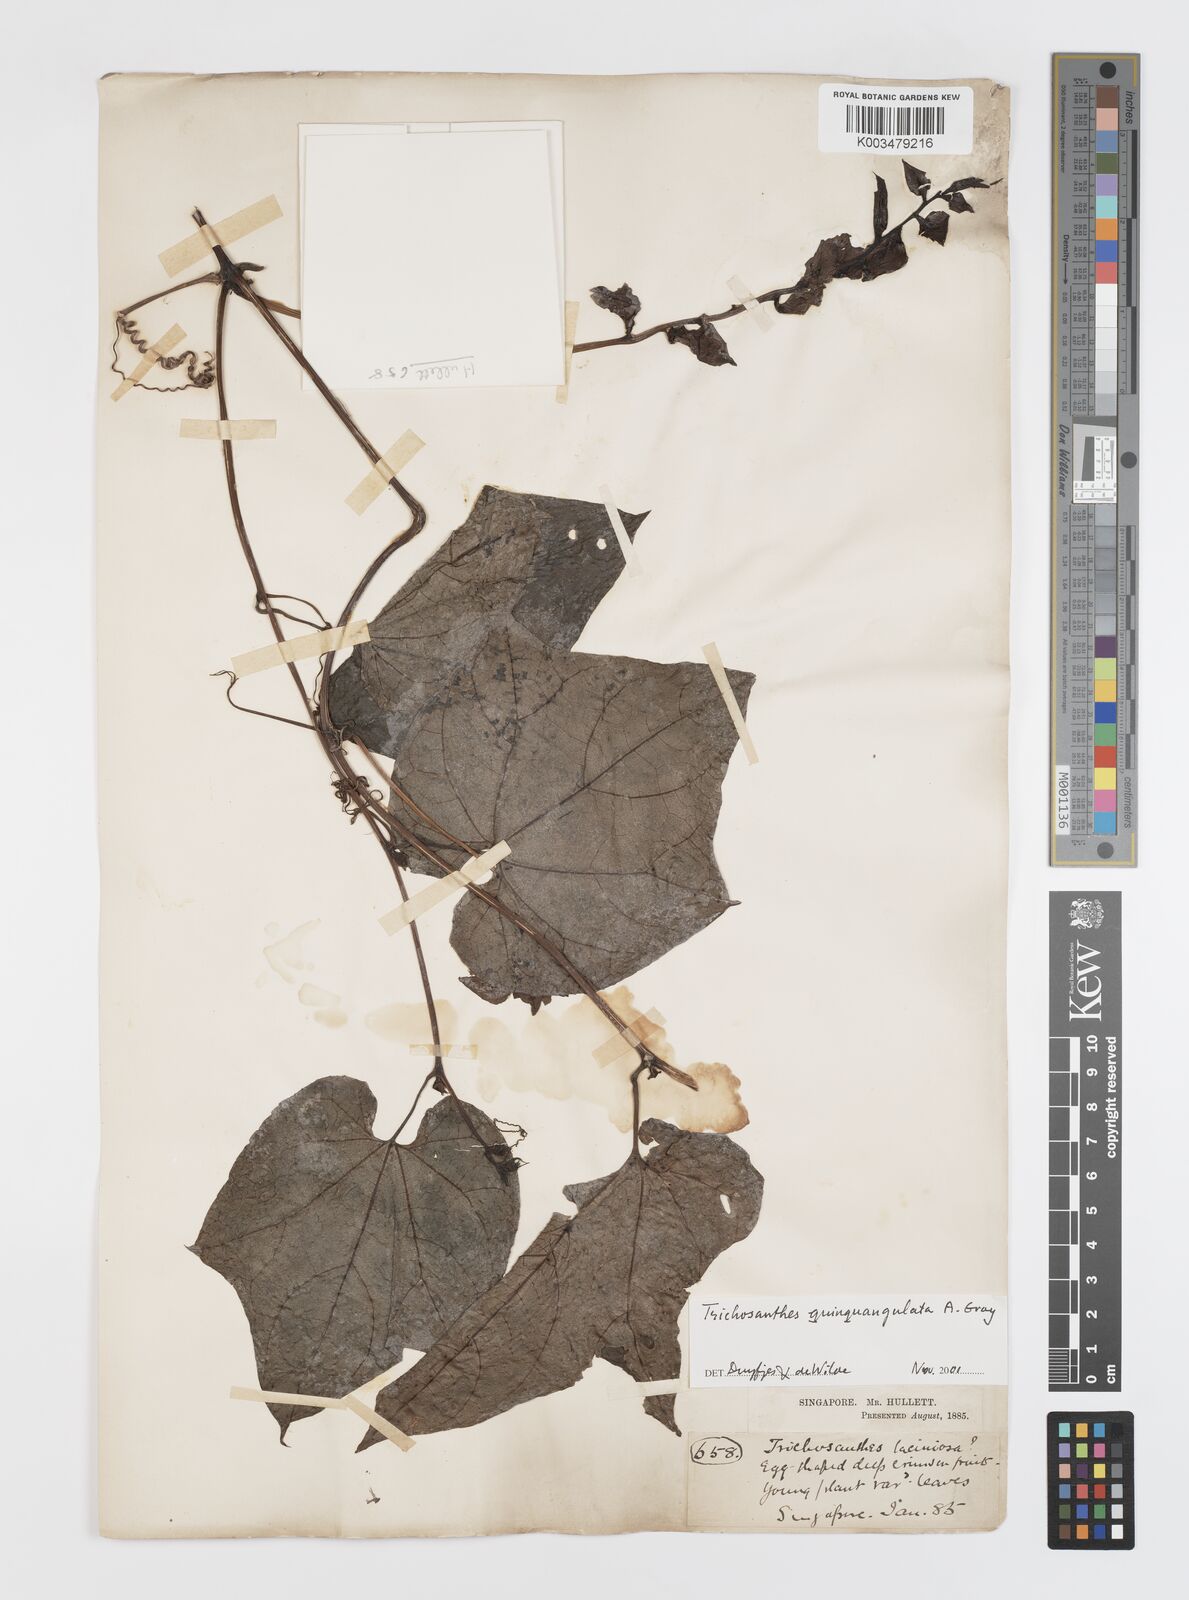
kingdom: Plantae
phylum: Tracheophyta
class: Magnoliopsida
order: Cucurbitales
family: Cucurbitaceae
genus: Trichosanthes
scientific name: Trichosanthes quinquangulata
